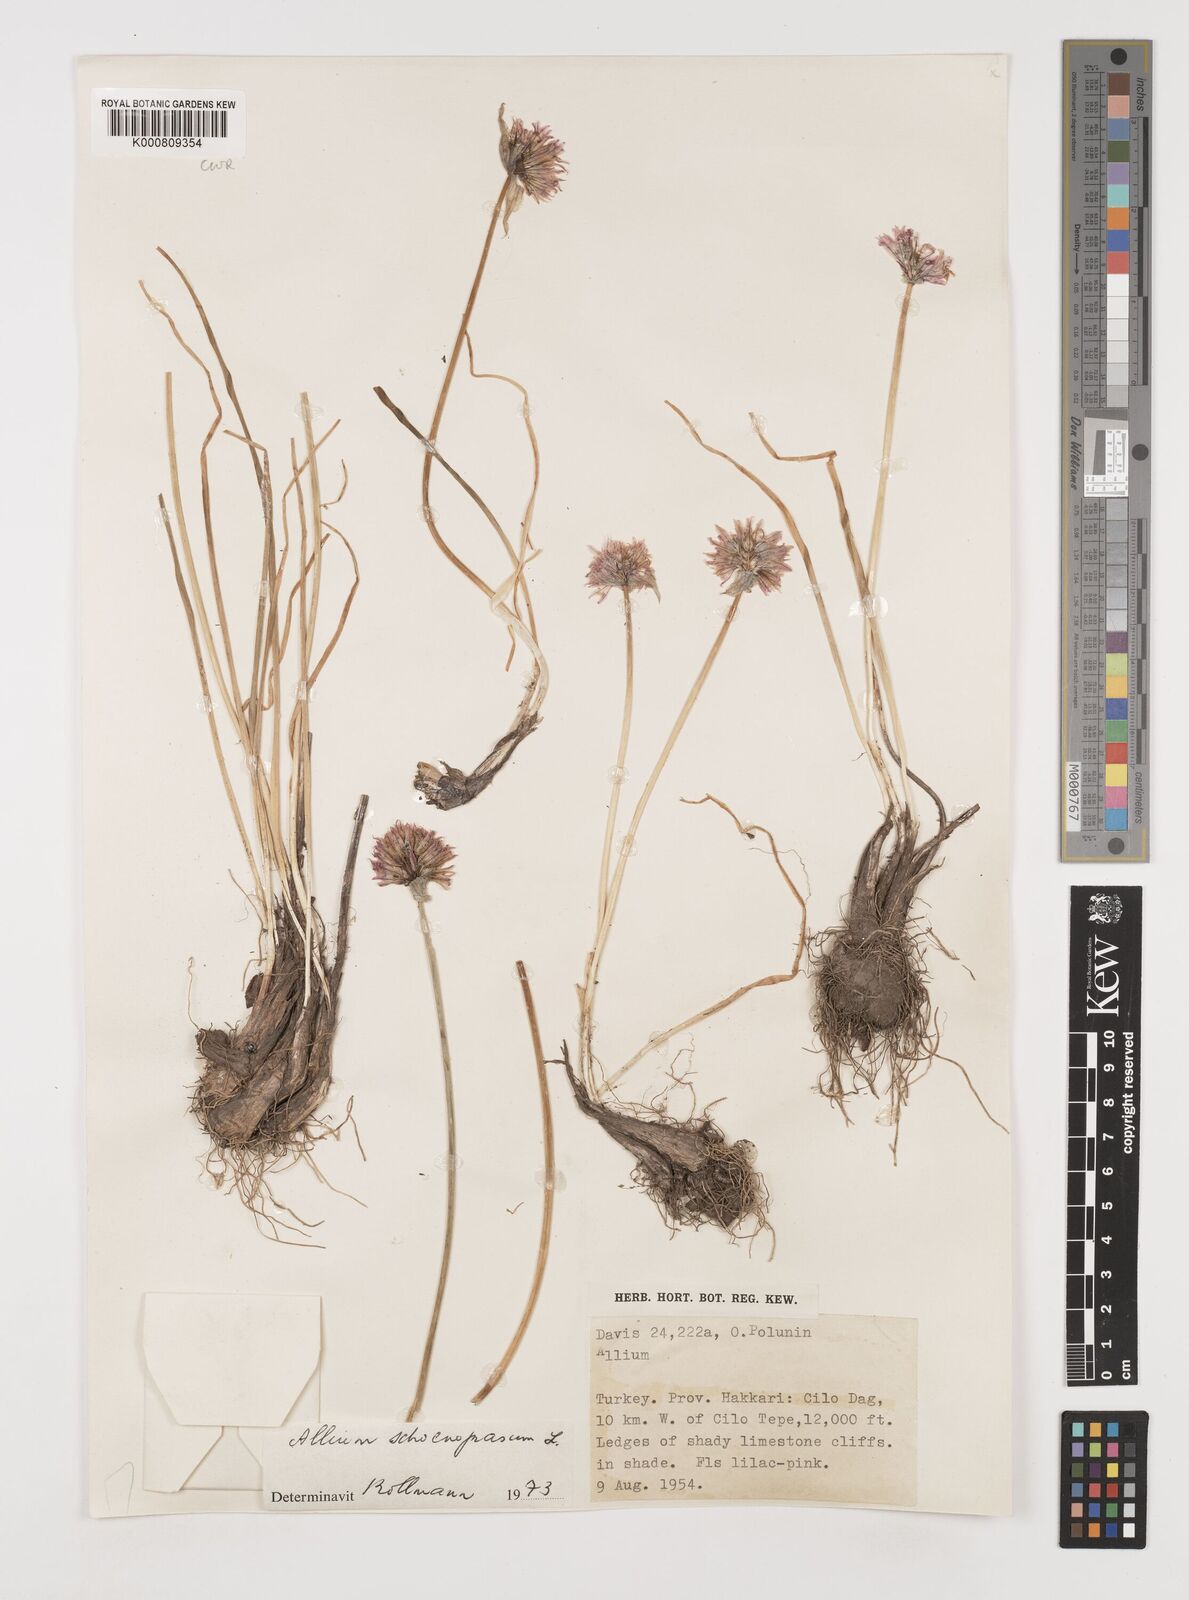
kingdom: Plantae
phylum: Tracheophyta
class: Liliopsida
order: Asparagales
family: Amaryllidaceae
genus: Allium
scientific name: Allium schoenoprasum
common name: Chives
